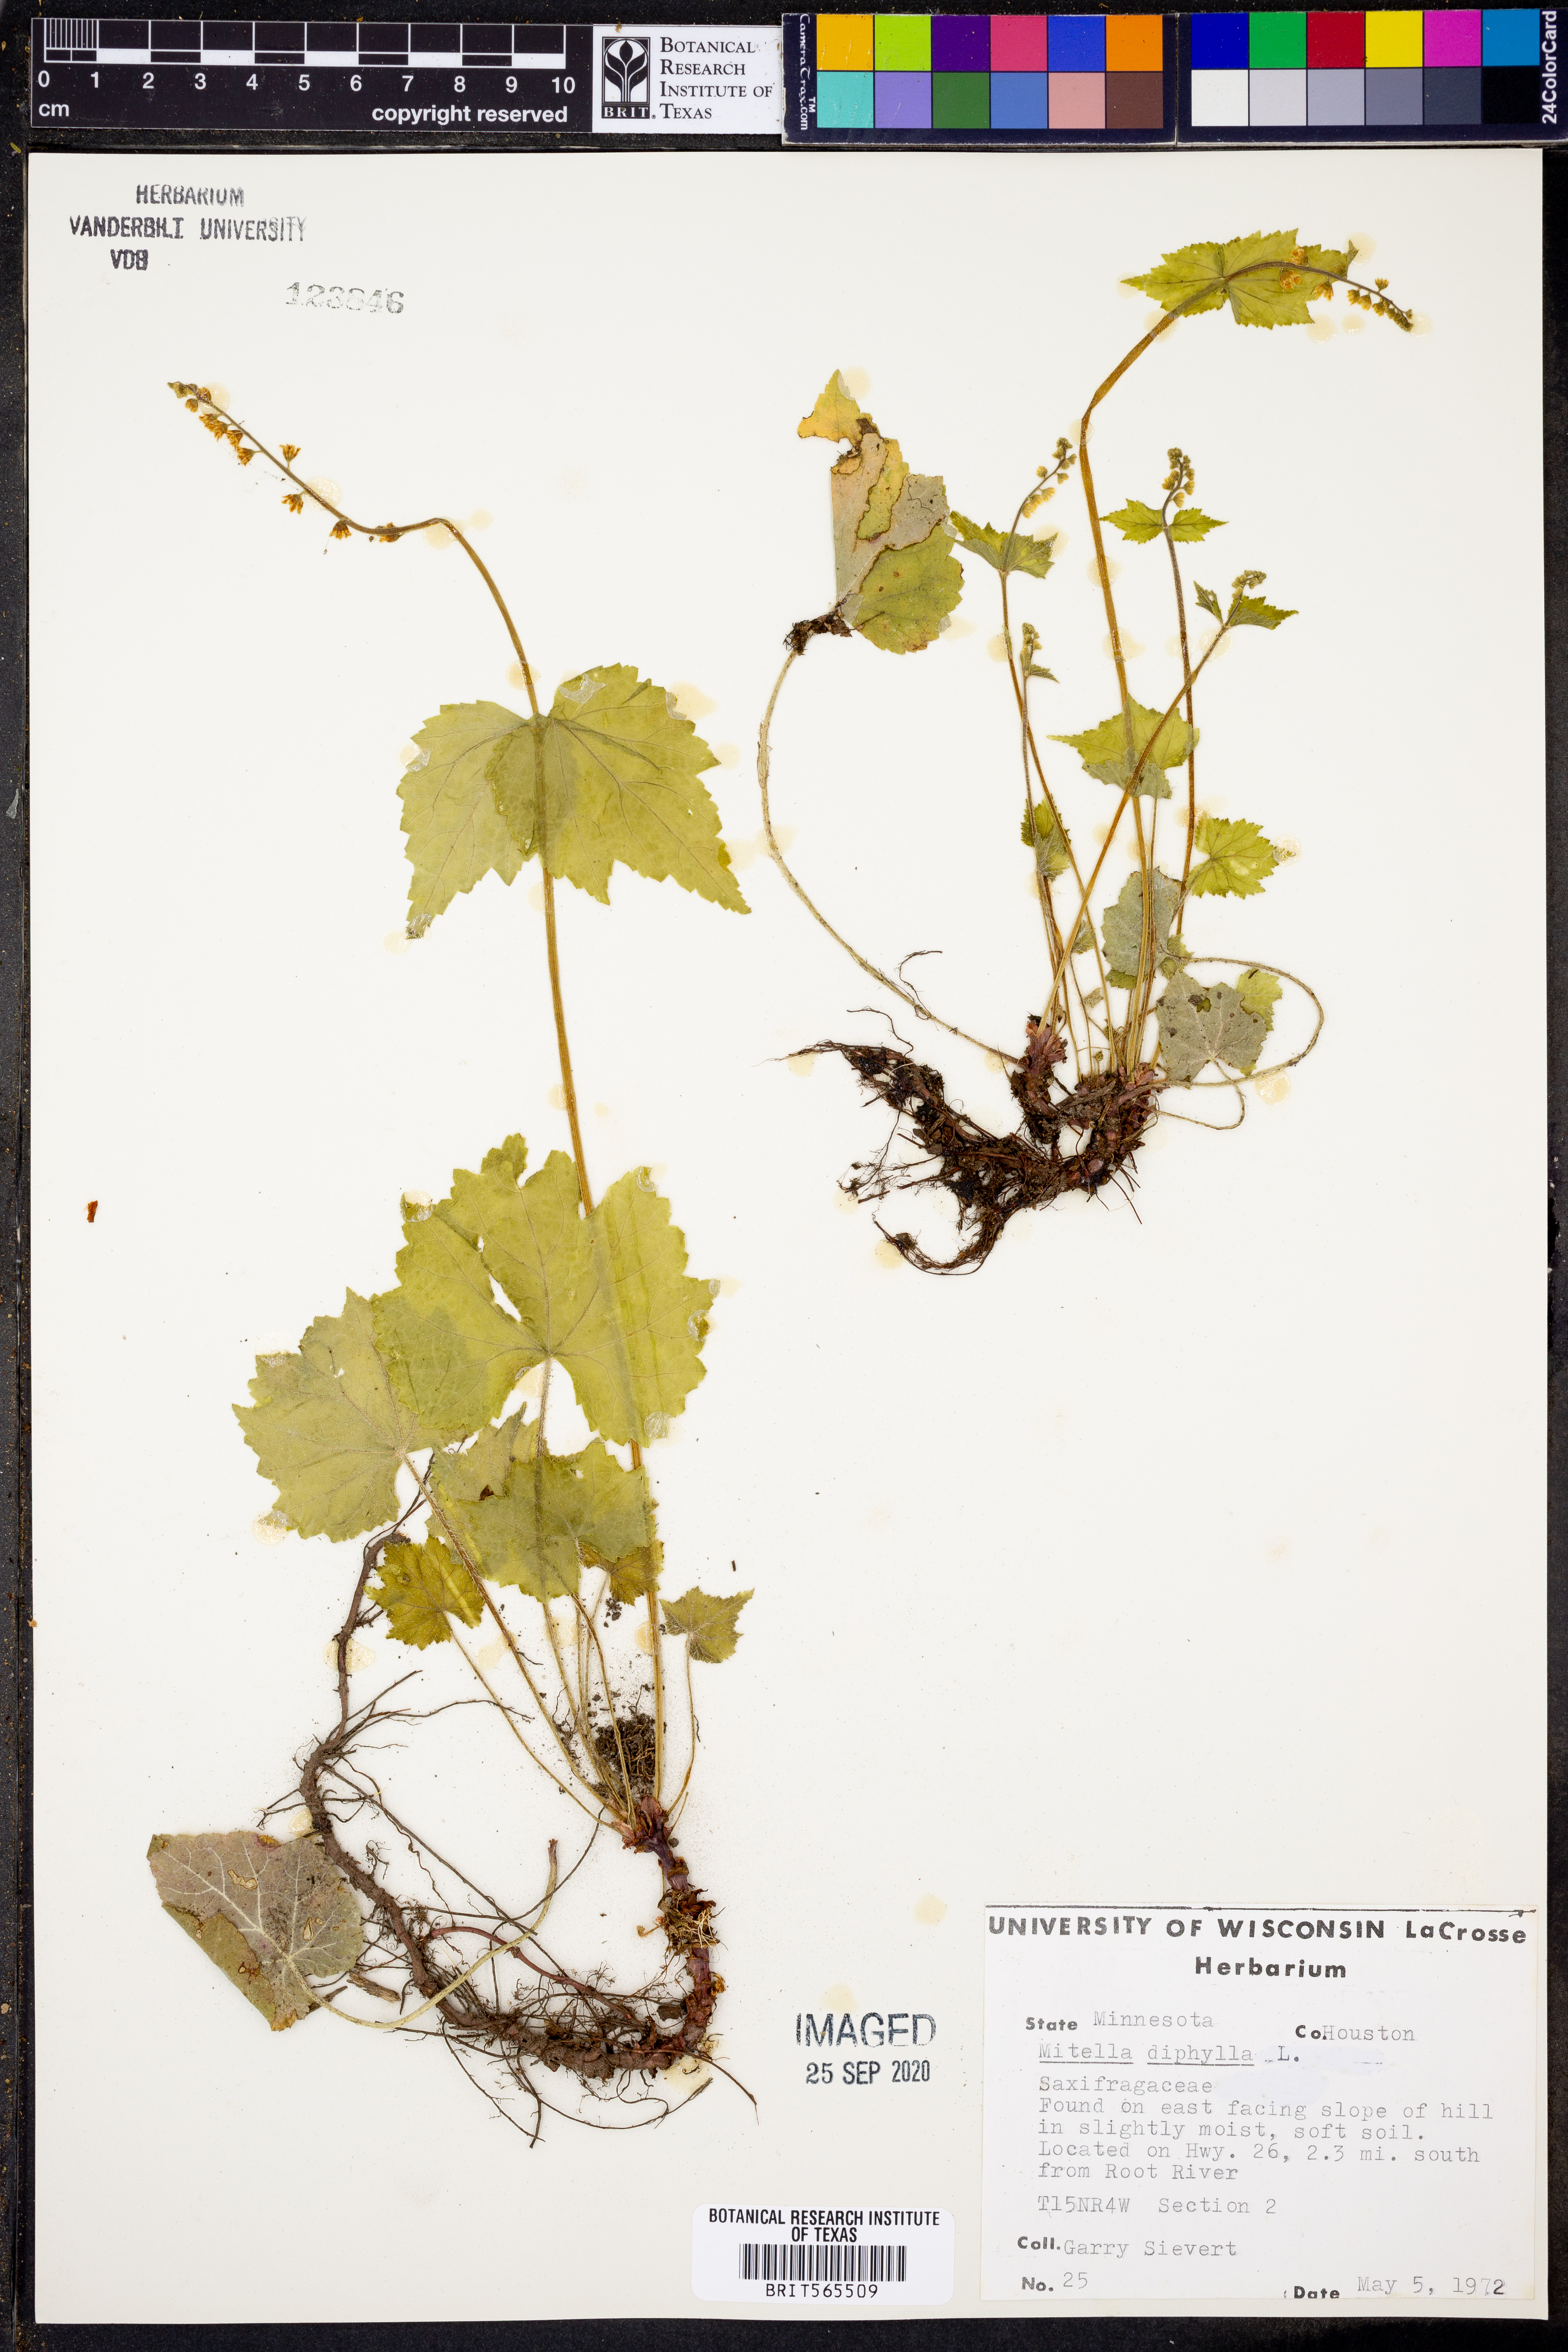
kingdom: Plantae
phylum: Tracheophyta
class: Magnoliopsida
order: Saxifragales
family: Saxifragaceae
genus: Mitella
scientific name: Mitella diphylla
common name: Coolwort
